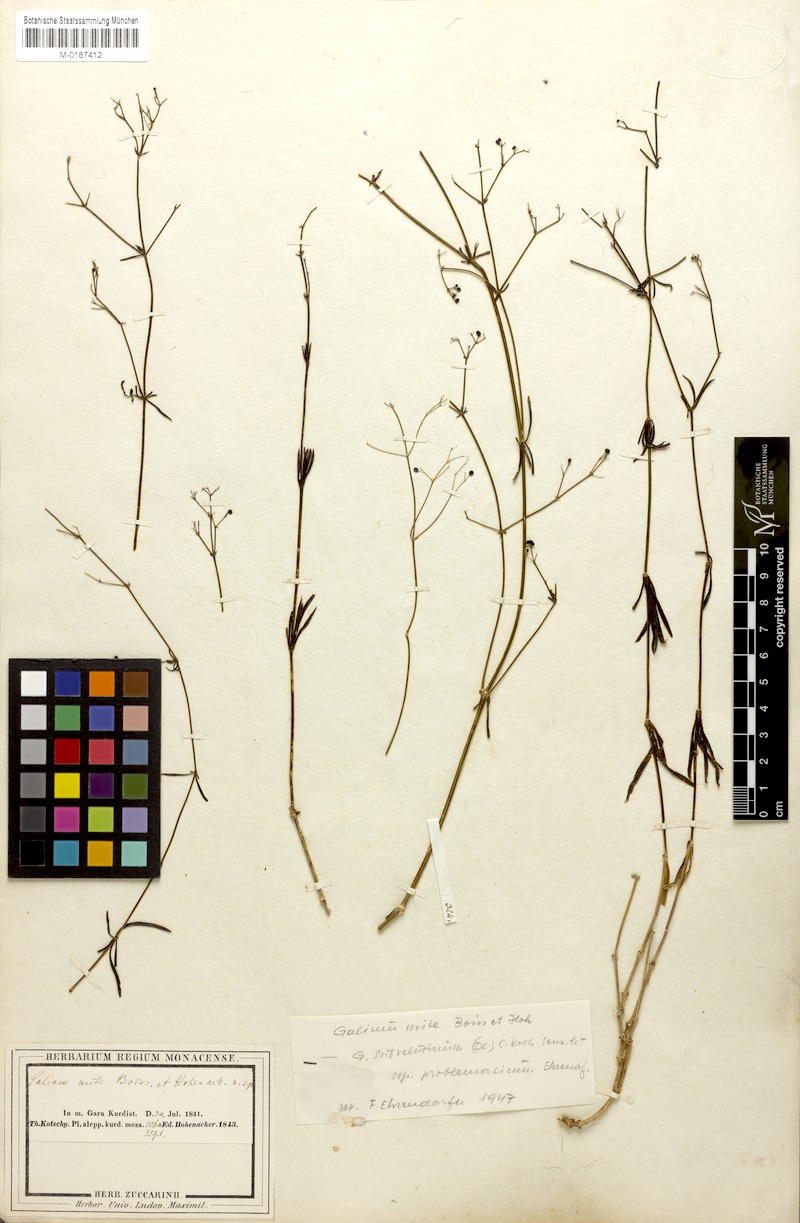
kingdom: Plantae
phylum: Tracheophyta
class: Magnoliopsida
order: Gentianales
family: Rubiaceae
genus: Galium
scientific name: Galium mite
